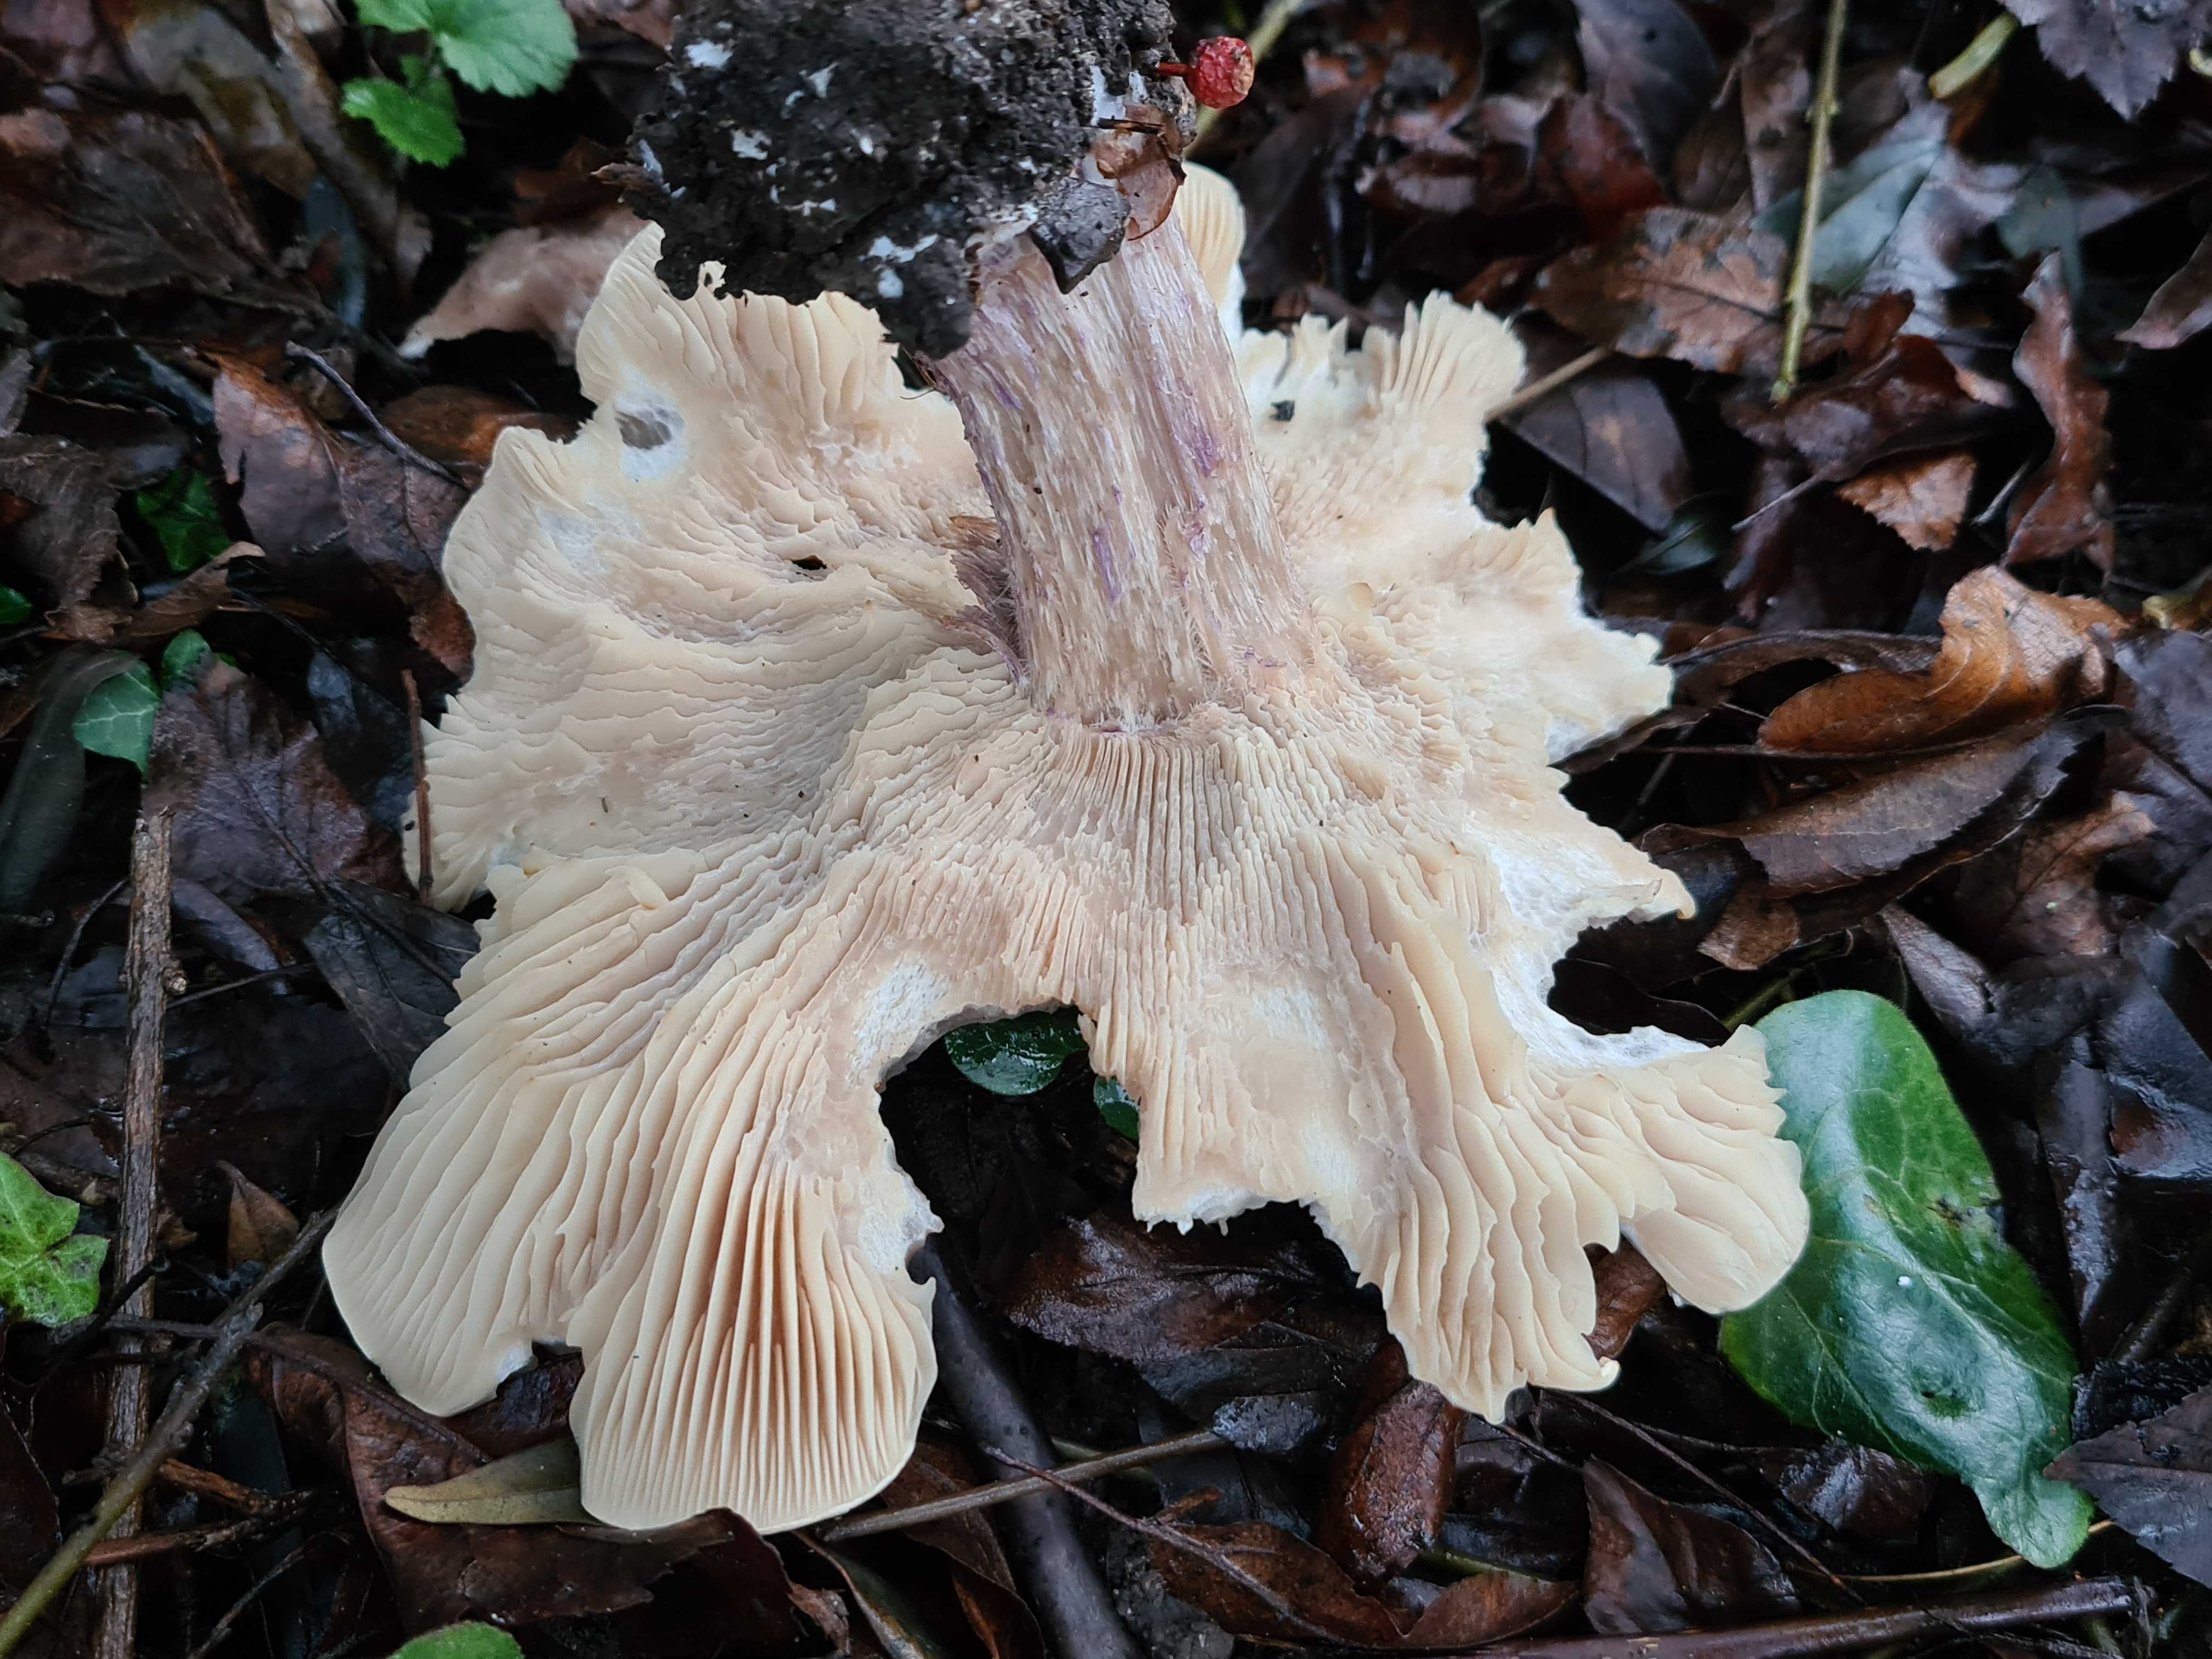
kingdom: Fungi
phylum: Basidiomycota
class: Agaricomycetes
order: Agaricales
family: Tricholomataceae
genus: Lepista
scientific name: Lepista personata
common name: bleg hekseringshat
